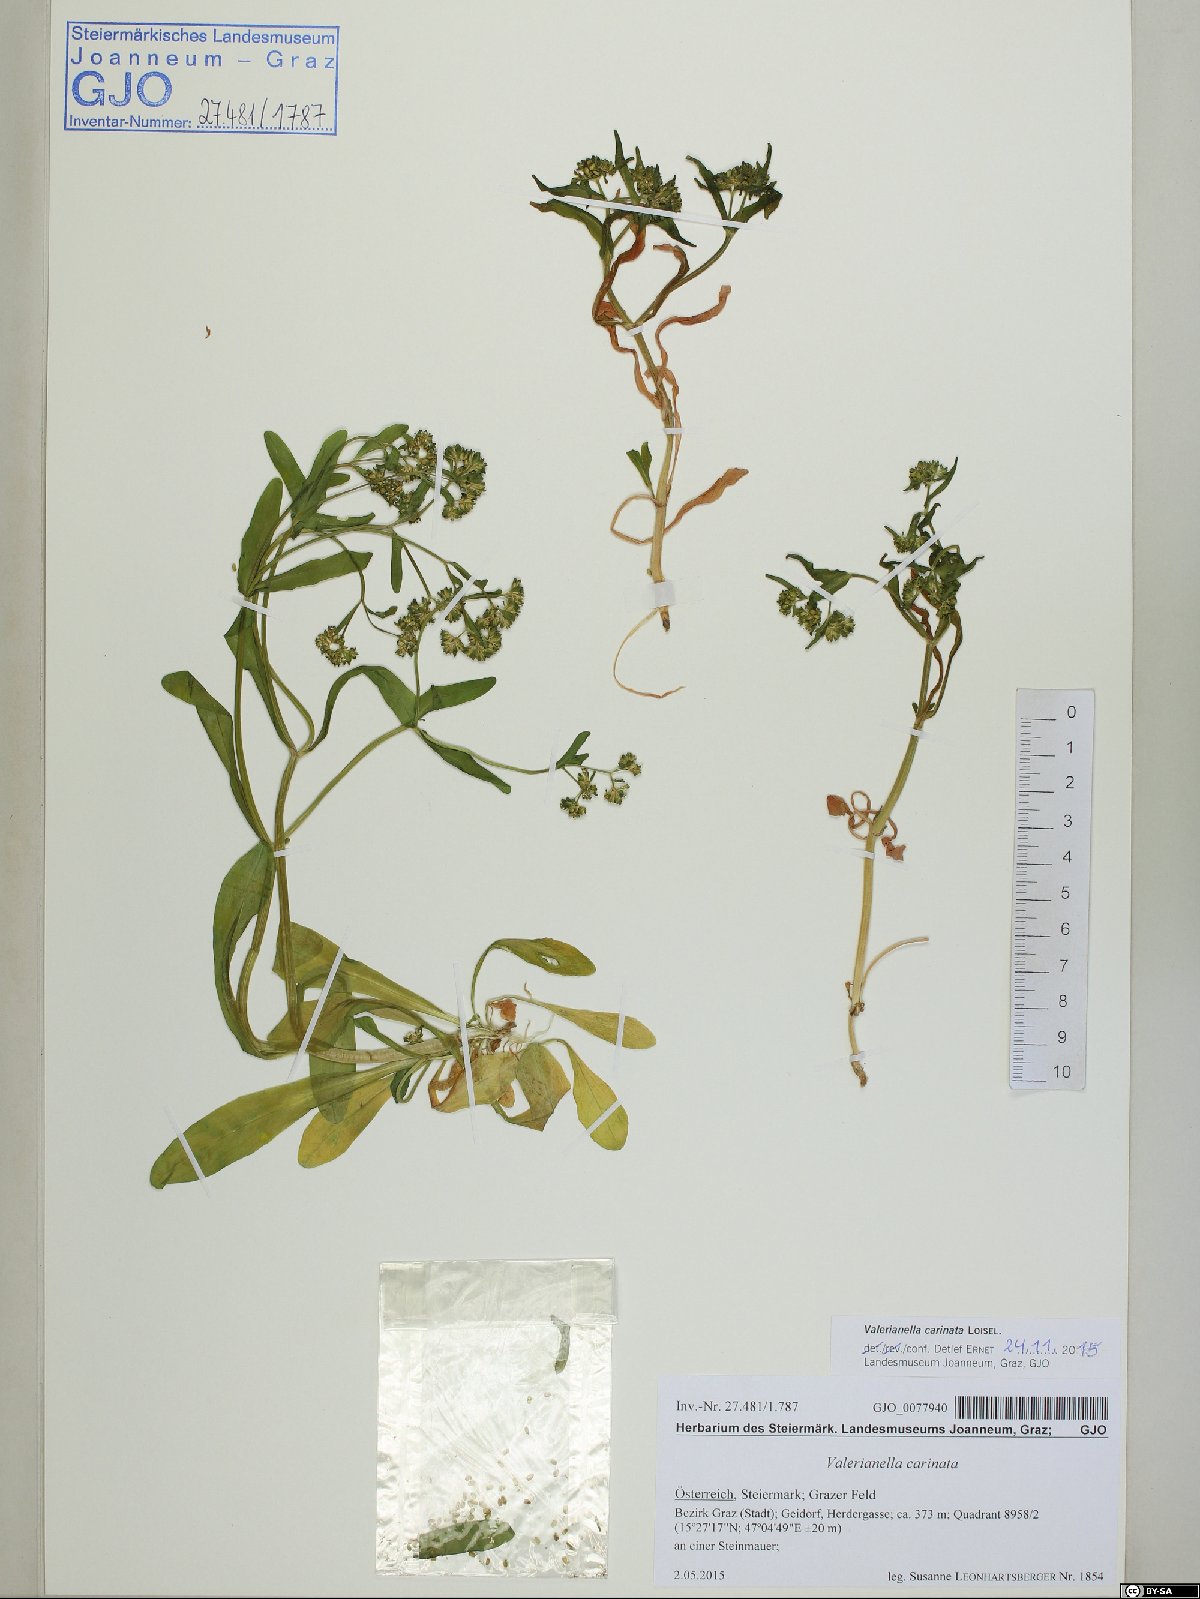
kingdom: Plantae
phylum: Tracheophyta
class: Magnoliopsida
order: Dipsacales
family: Caprifoliaceae
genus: Valerianella
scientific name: Valerianella carinata
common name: Keeled-fruited cornsalad
